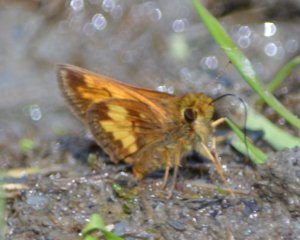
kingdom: Animalia
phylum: Arthropoda
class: Insecta
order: Lepidoptera
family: Hesperiidae
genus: Lon
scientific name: Lon hobomok
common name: Hobomok Skipper
